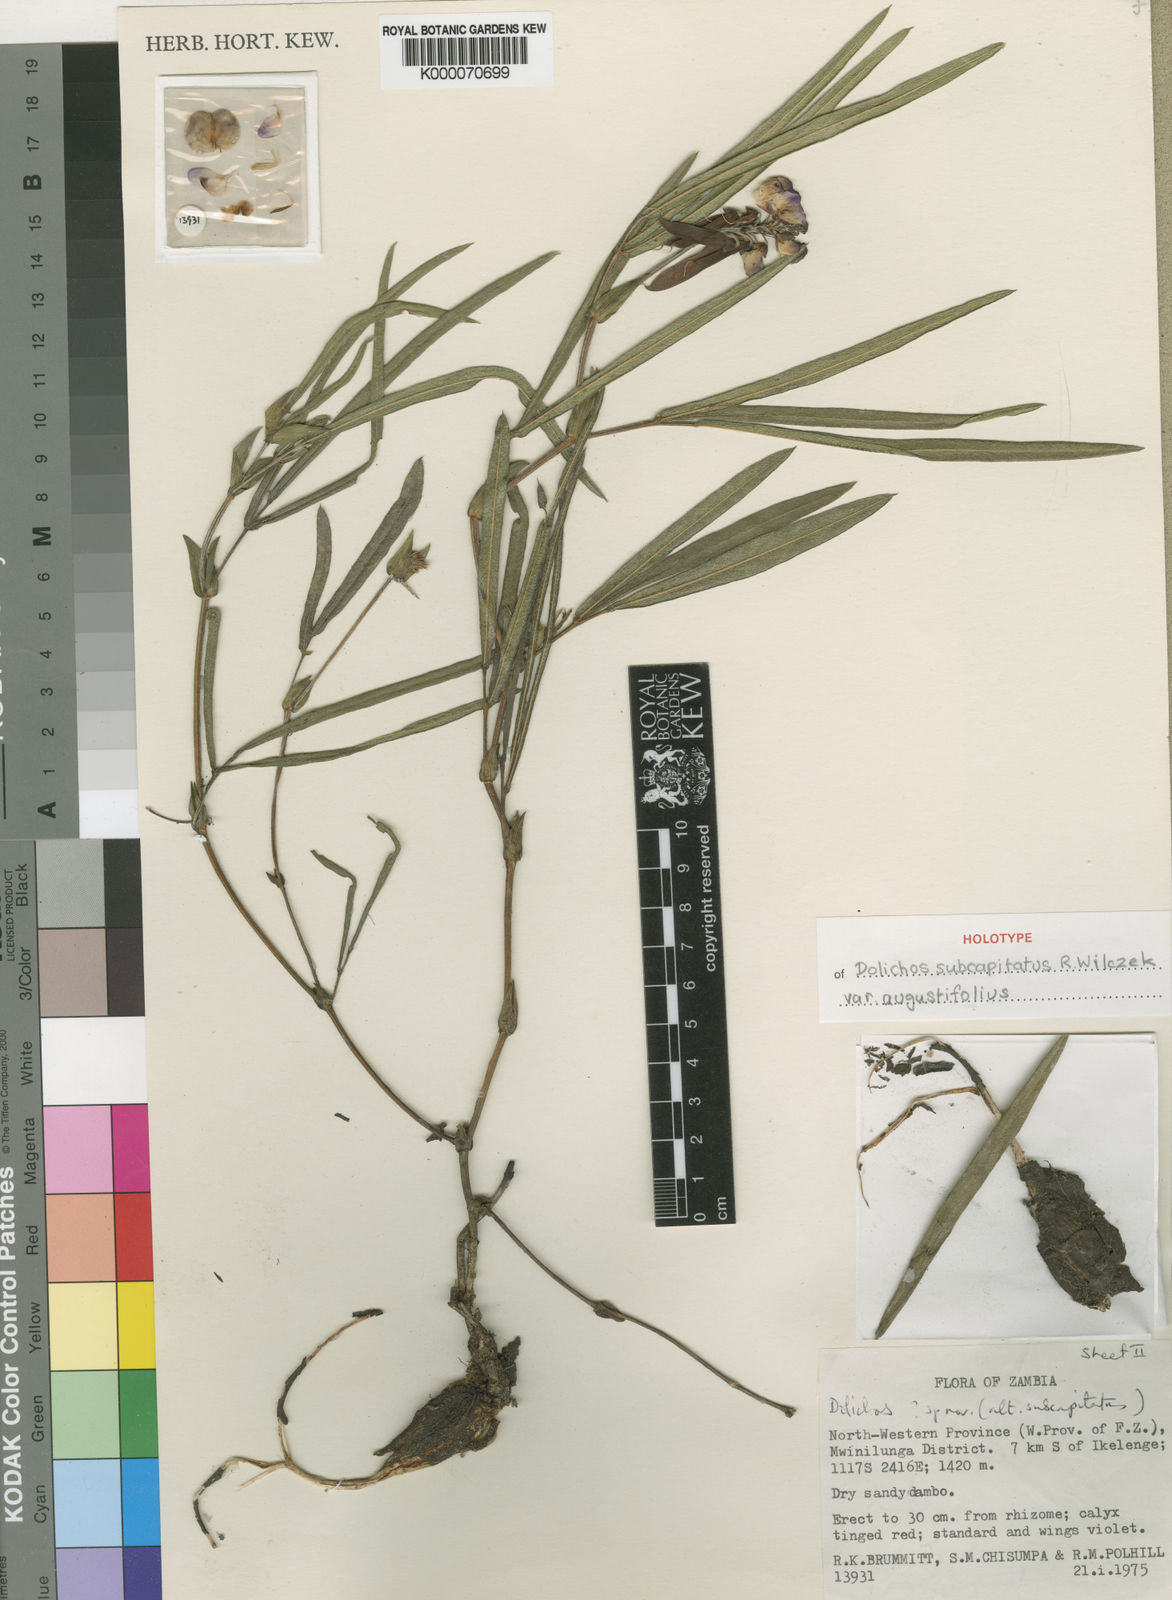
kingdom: Plantae
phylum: Tracheophyta
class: Magnoliopsida
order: Fabales
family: Fabaceae
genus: Dolichos
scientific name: Dolichos subcapitatus
